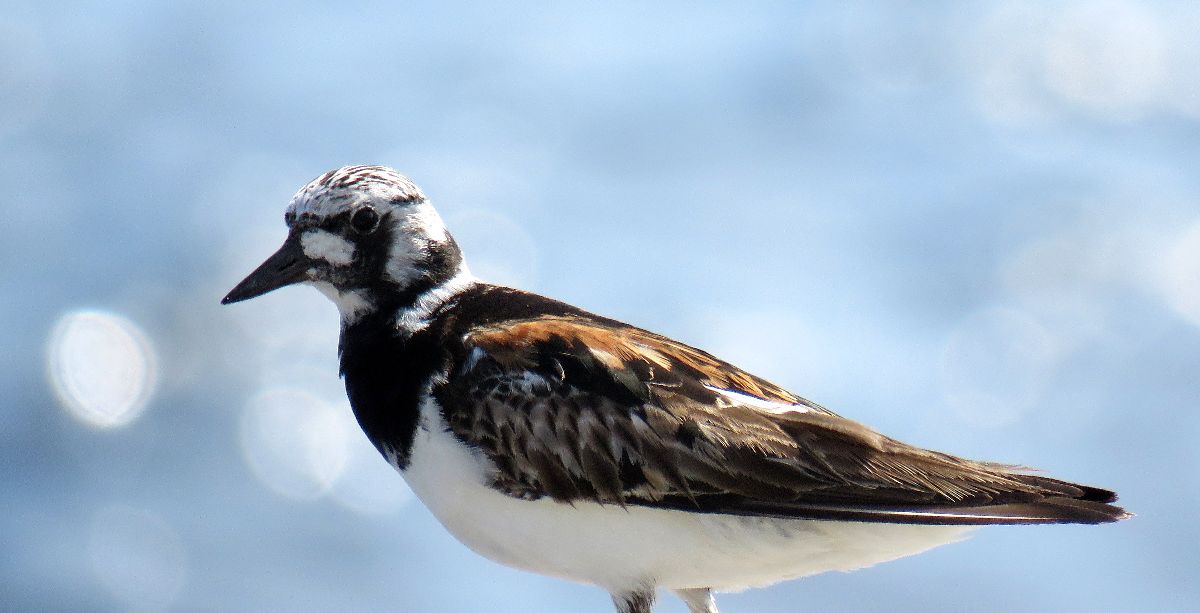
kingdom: Animalia
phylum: Chordata
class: Aves
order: Charadriiformes
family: Scolopacidae
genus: Arenaria
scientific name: Arenaria interpres
